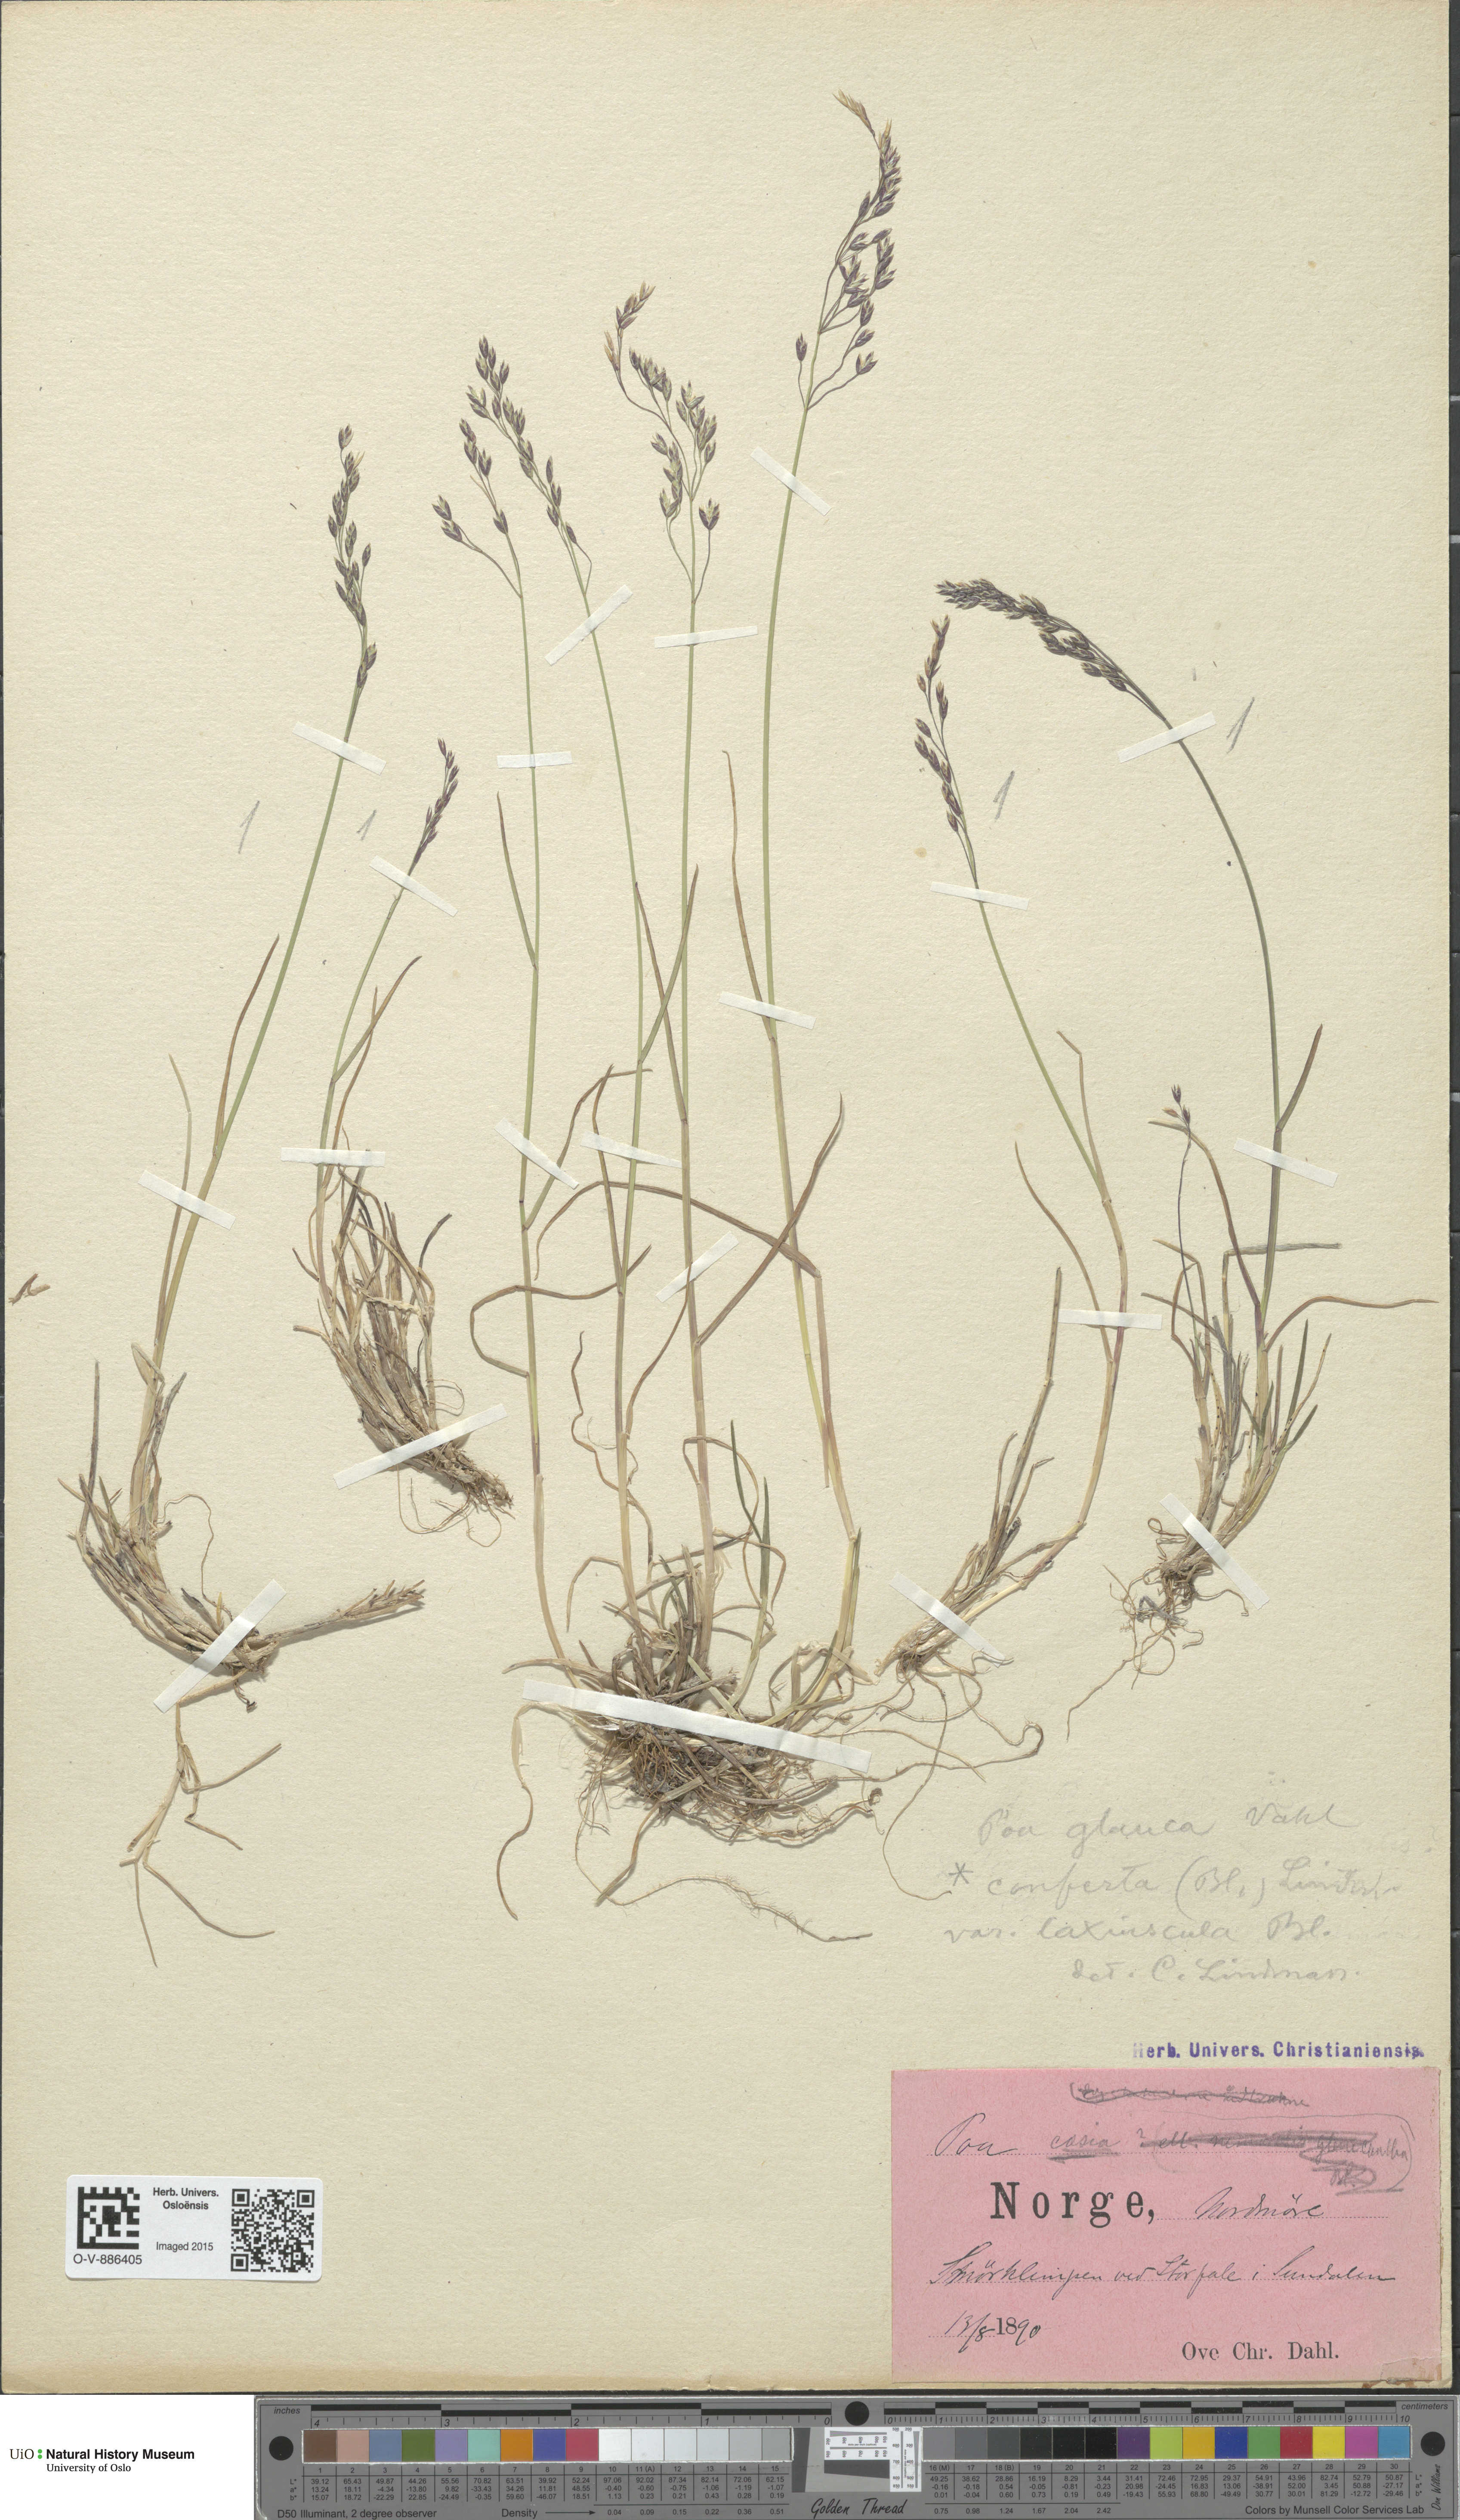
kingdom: Plantae
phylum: Tracheophyta
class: Liliopsida
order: Poales
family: Poaceae
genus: Poa
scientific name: Poa glauca
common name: Glaucous bluegrass
